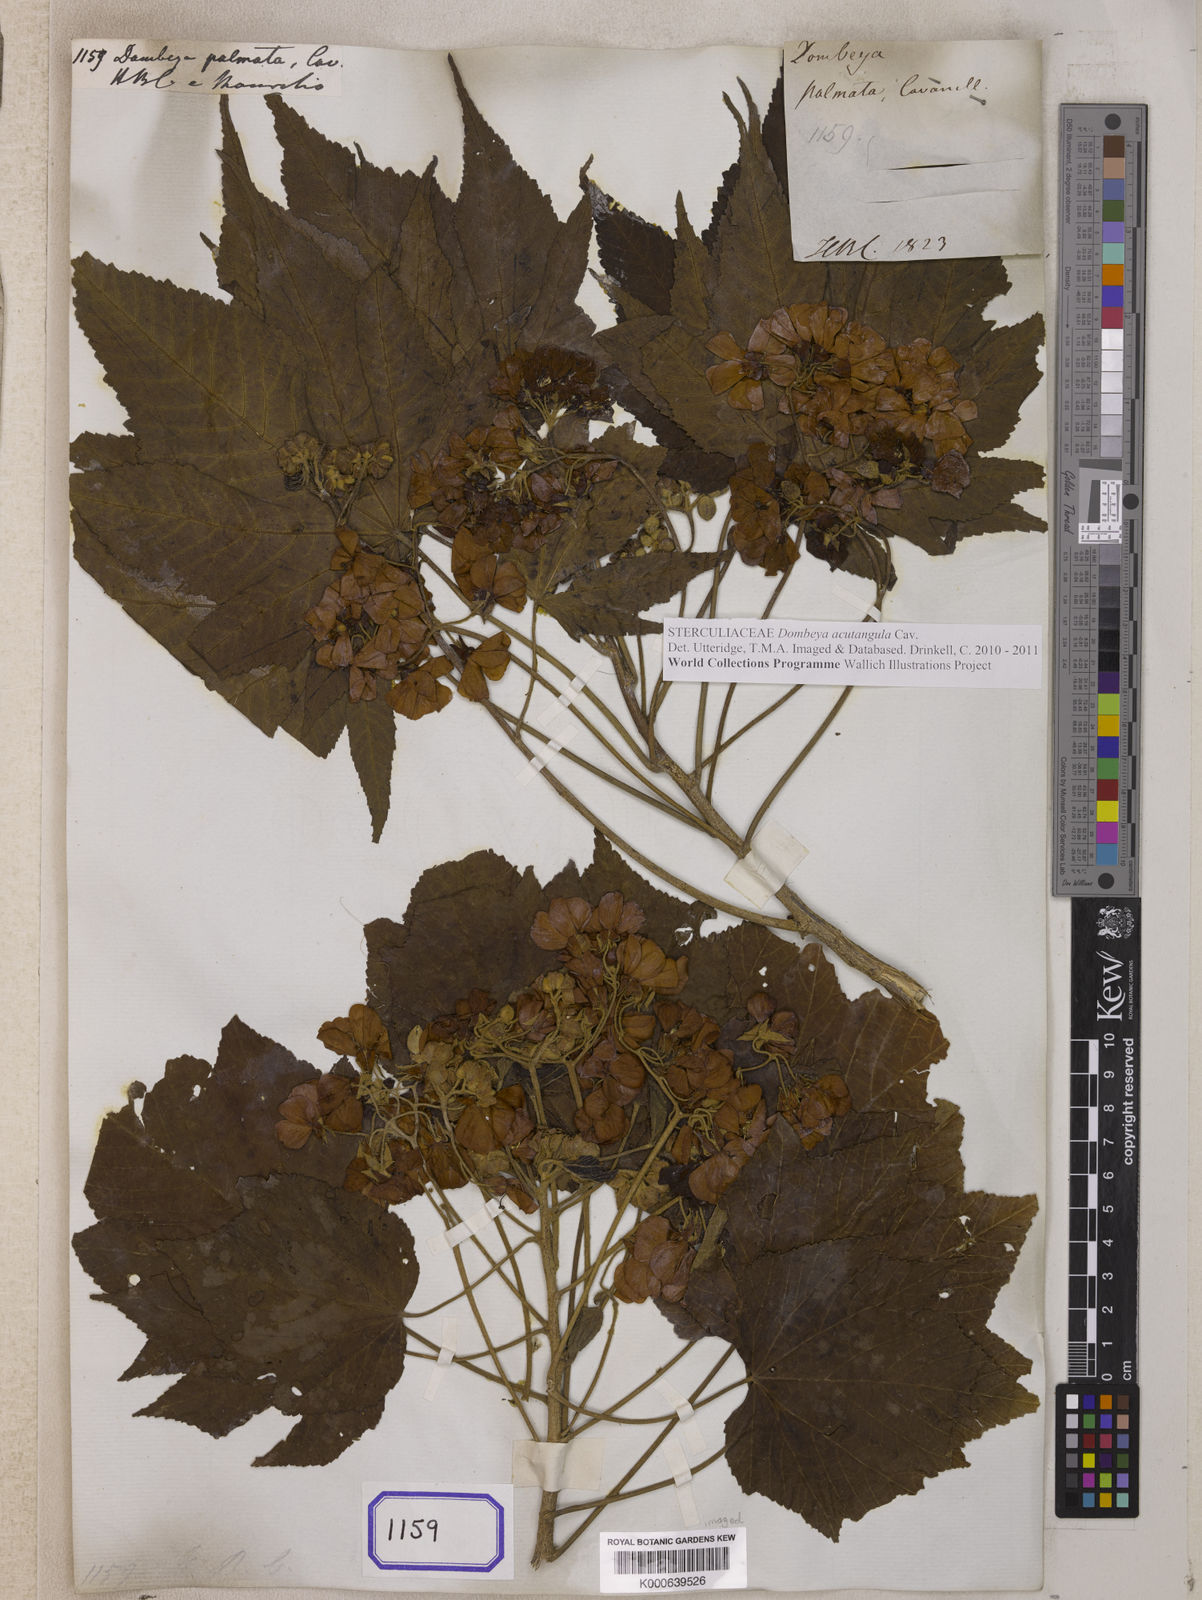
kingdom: Plantae
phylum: Tracheophyta
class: Magnoliopsida
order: Malvales
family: Malvaceae
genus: Dombeya
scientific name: Dombeya acutangula
